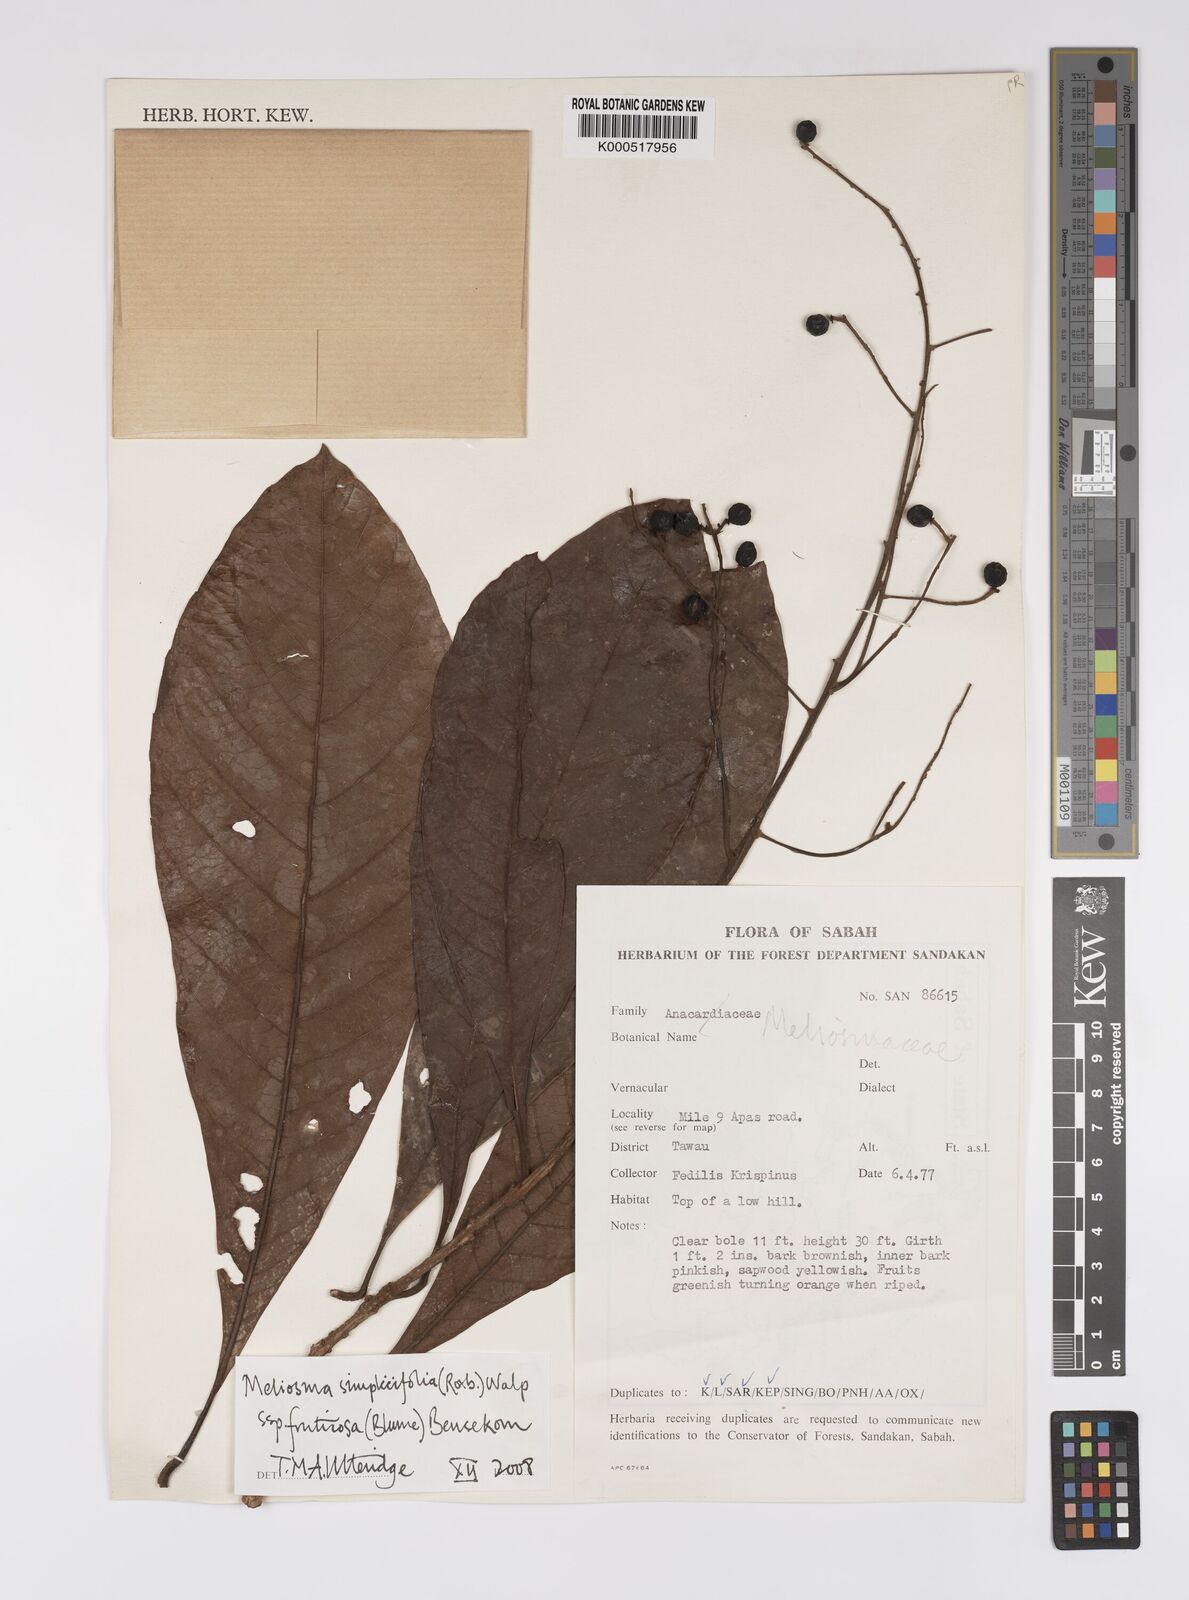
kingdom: Plantae
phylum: Tracheophyta
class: Magnoliopsida
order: Proteales
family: Sabiaceae
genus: Meliosma
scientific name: Meliosma simplicifolia
